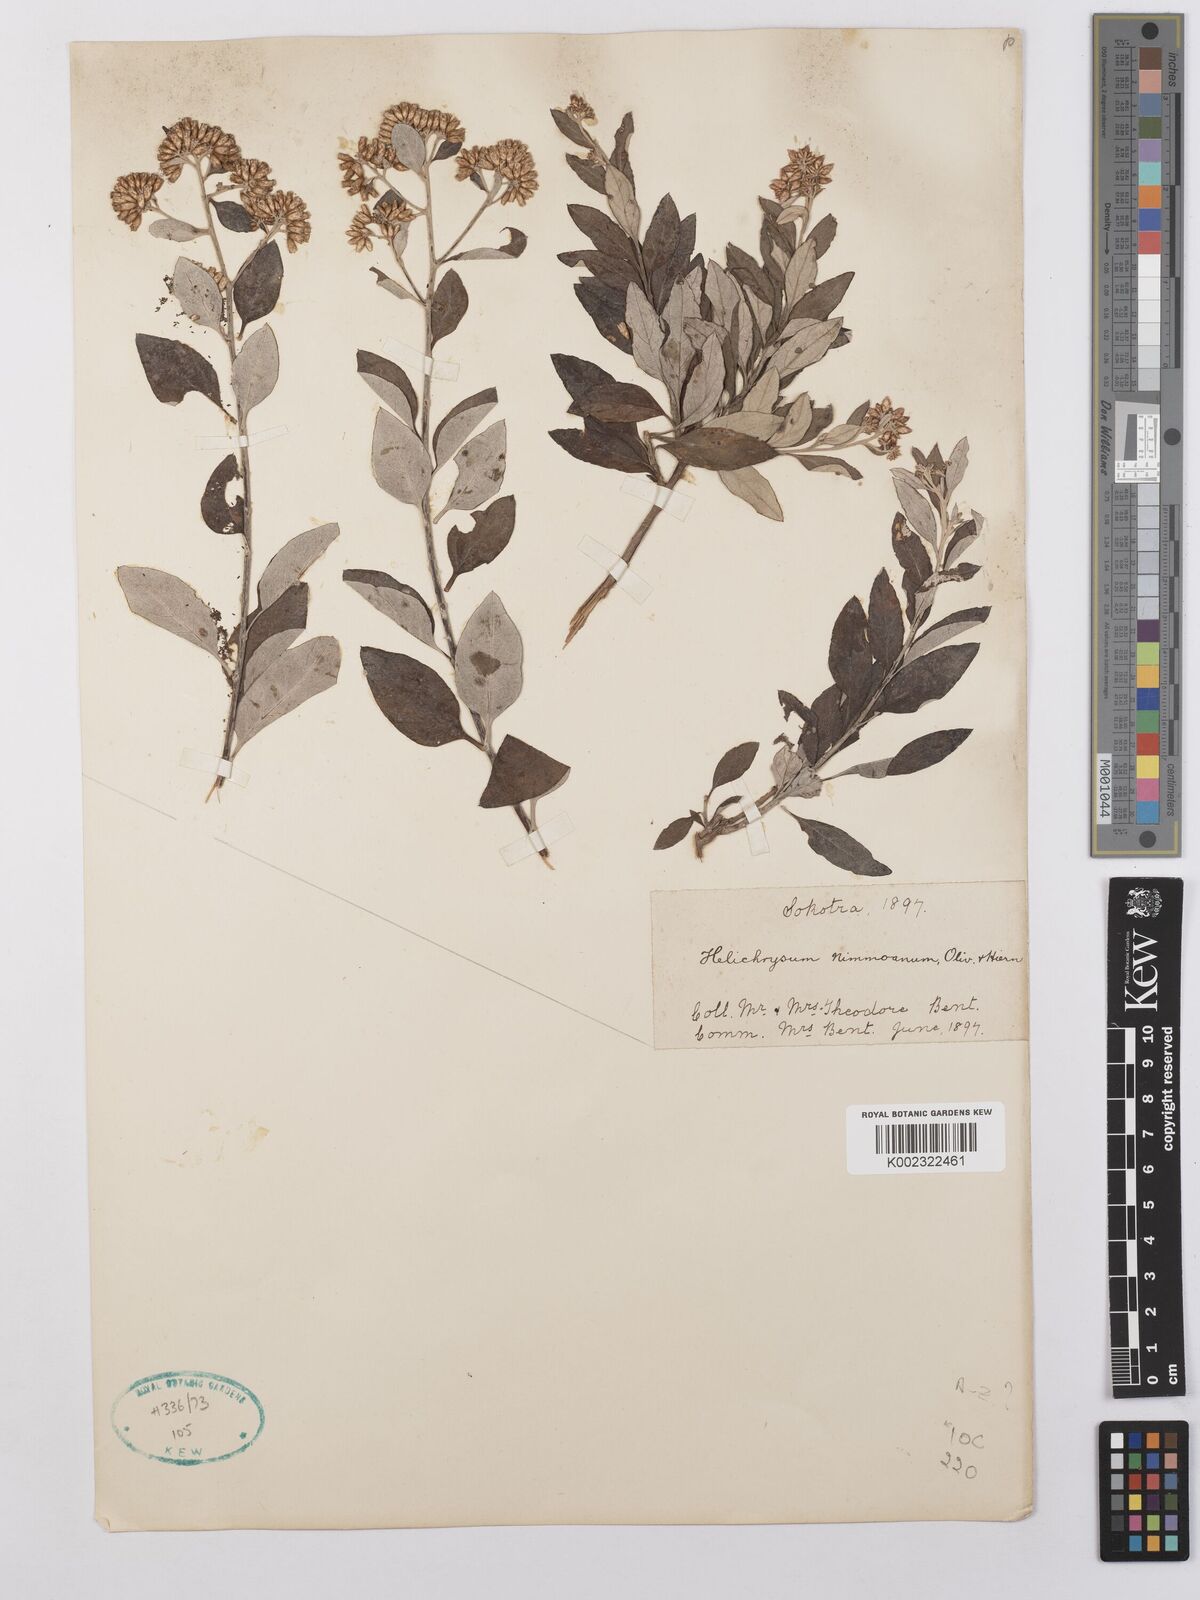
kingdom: Plantae
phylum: Tracheophyta
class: Magnoliopsida
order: Asterales
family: Asteraceae
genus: Libinhania
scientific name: Libinhania nimmoana
